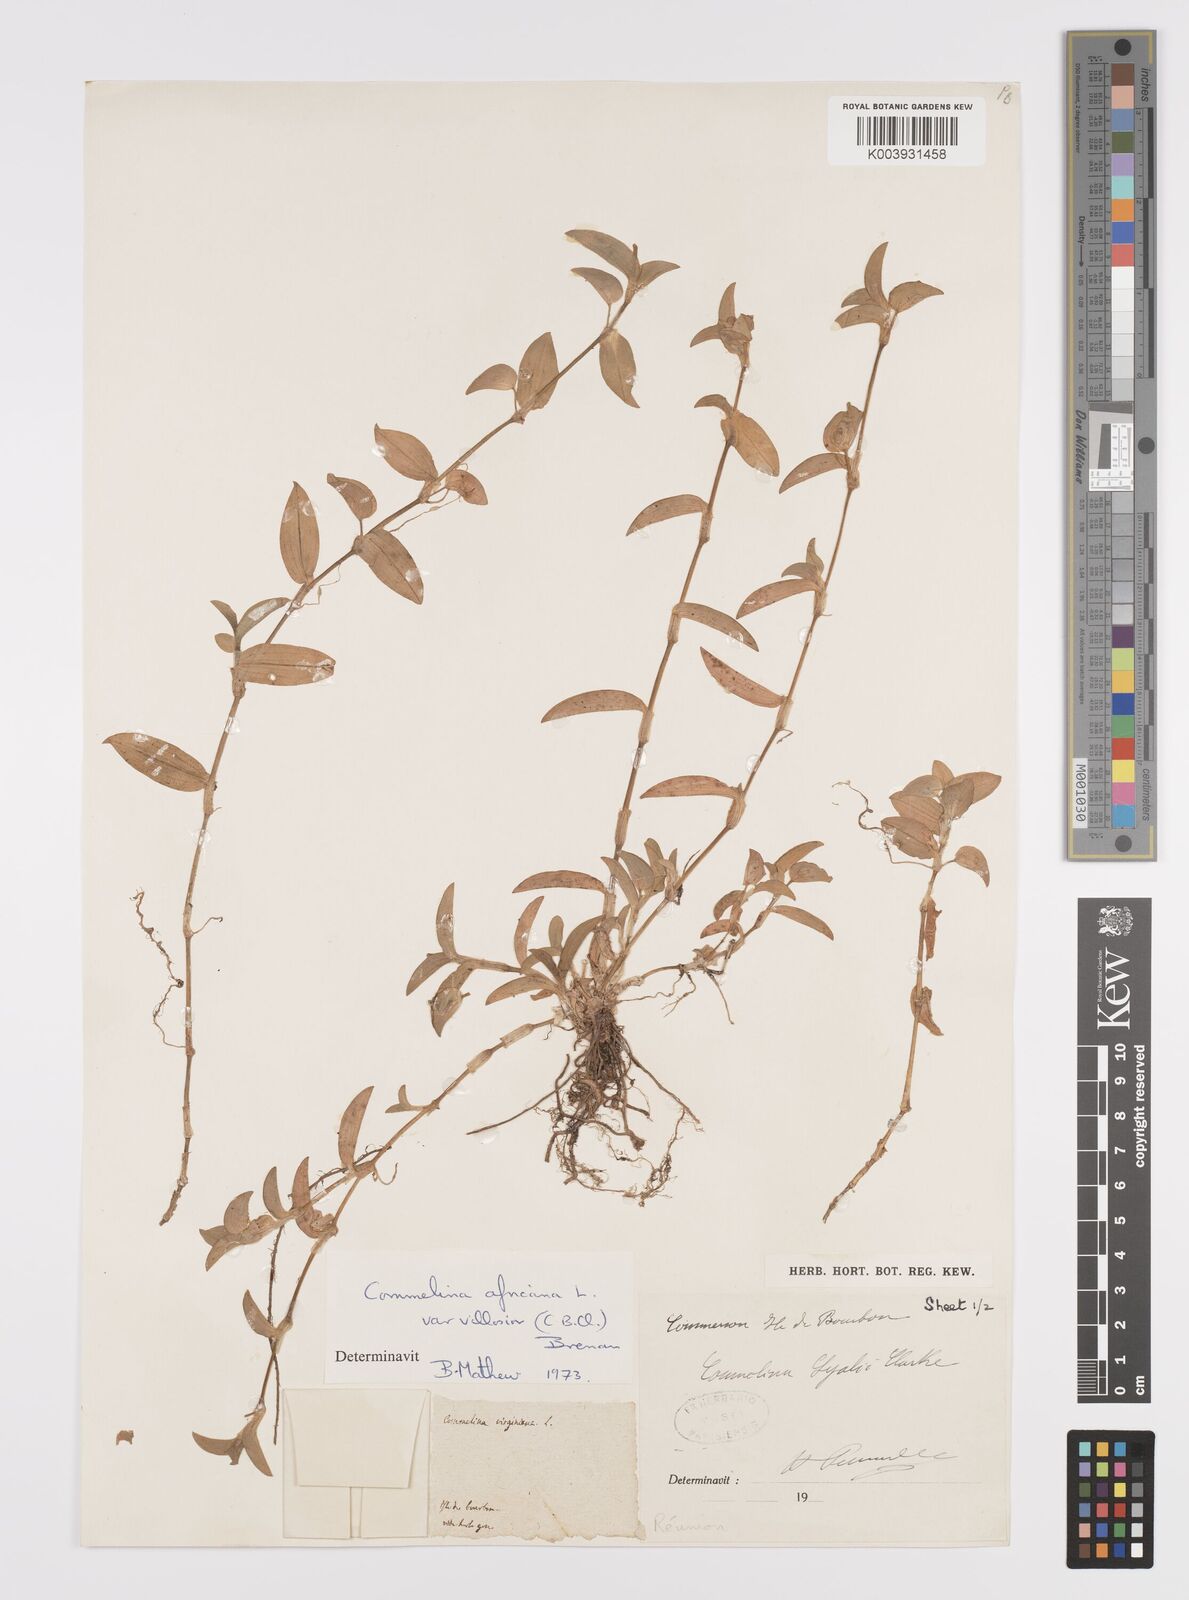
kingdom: Plantae
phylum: Tracheophyta
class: Liliopsida
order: Commelinales
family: Commelinaceae
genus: Commelina
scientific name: Commelina africana
